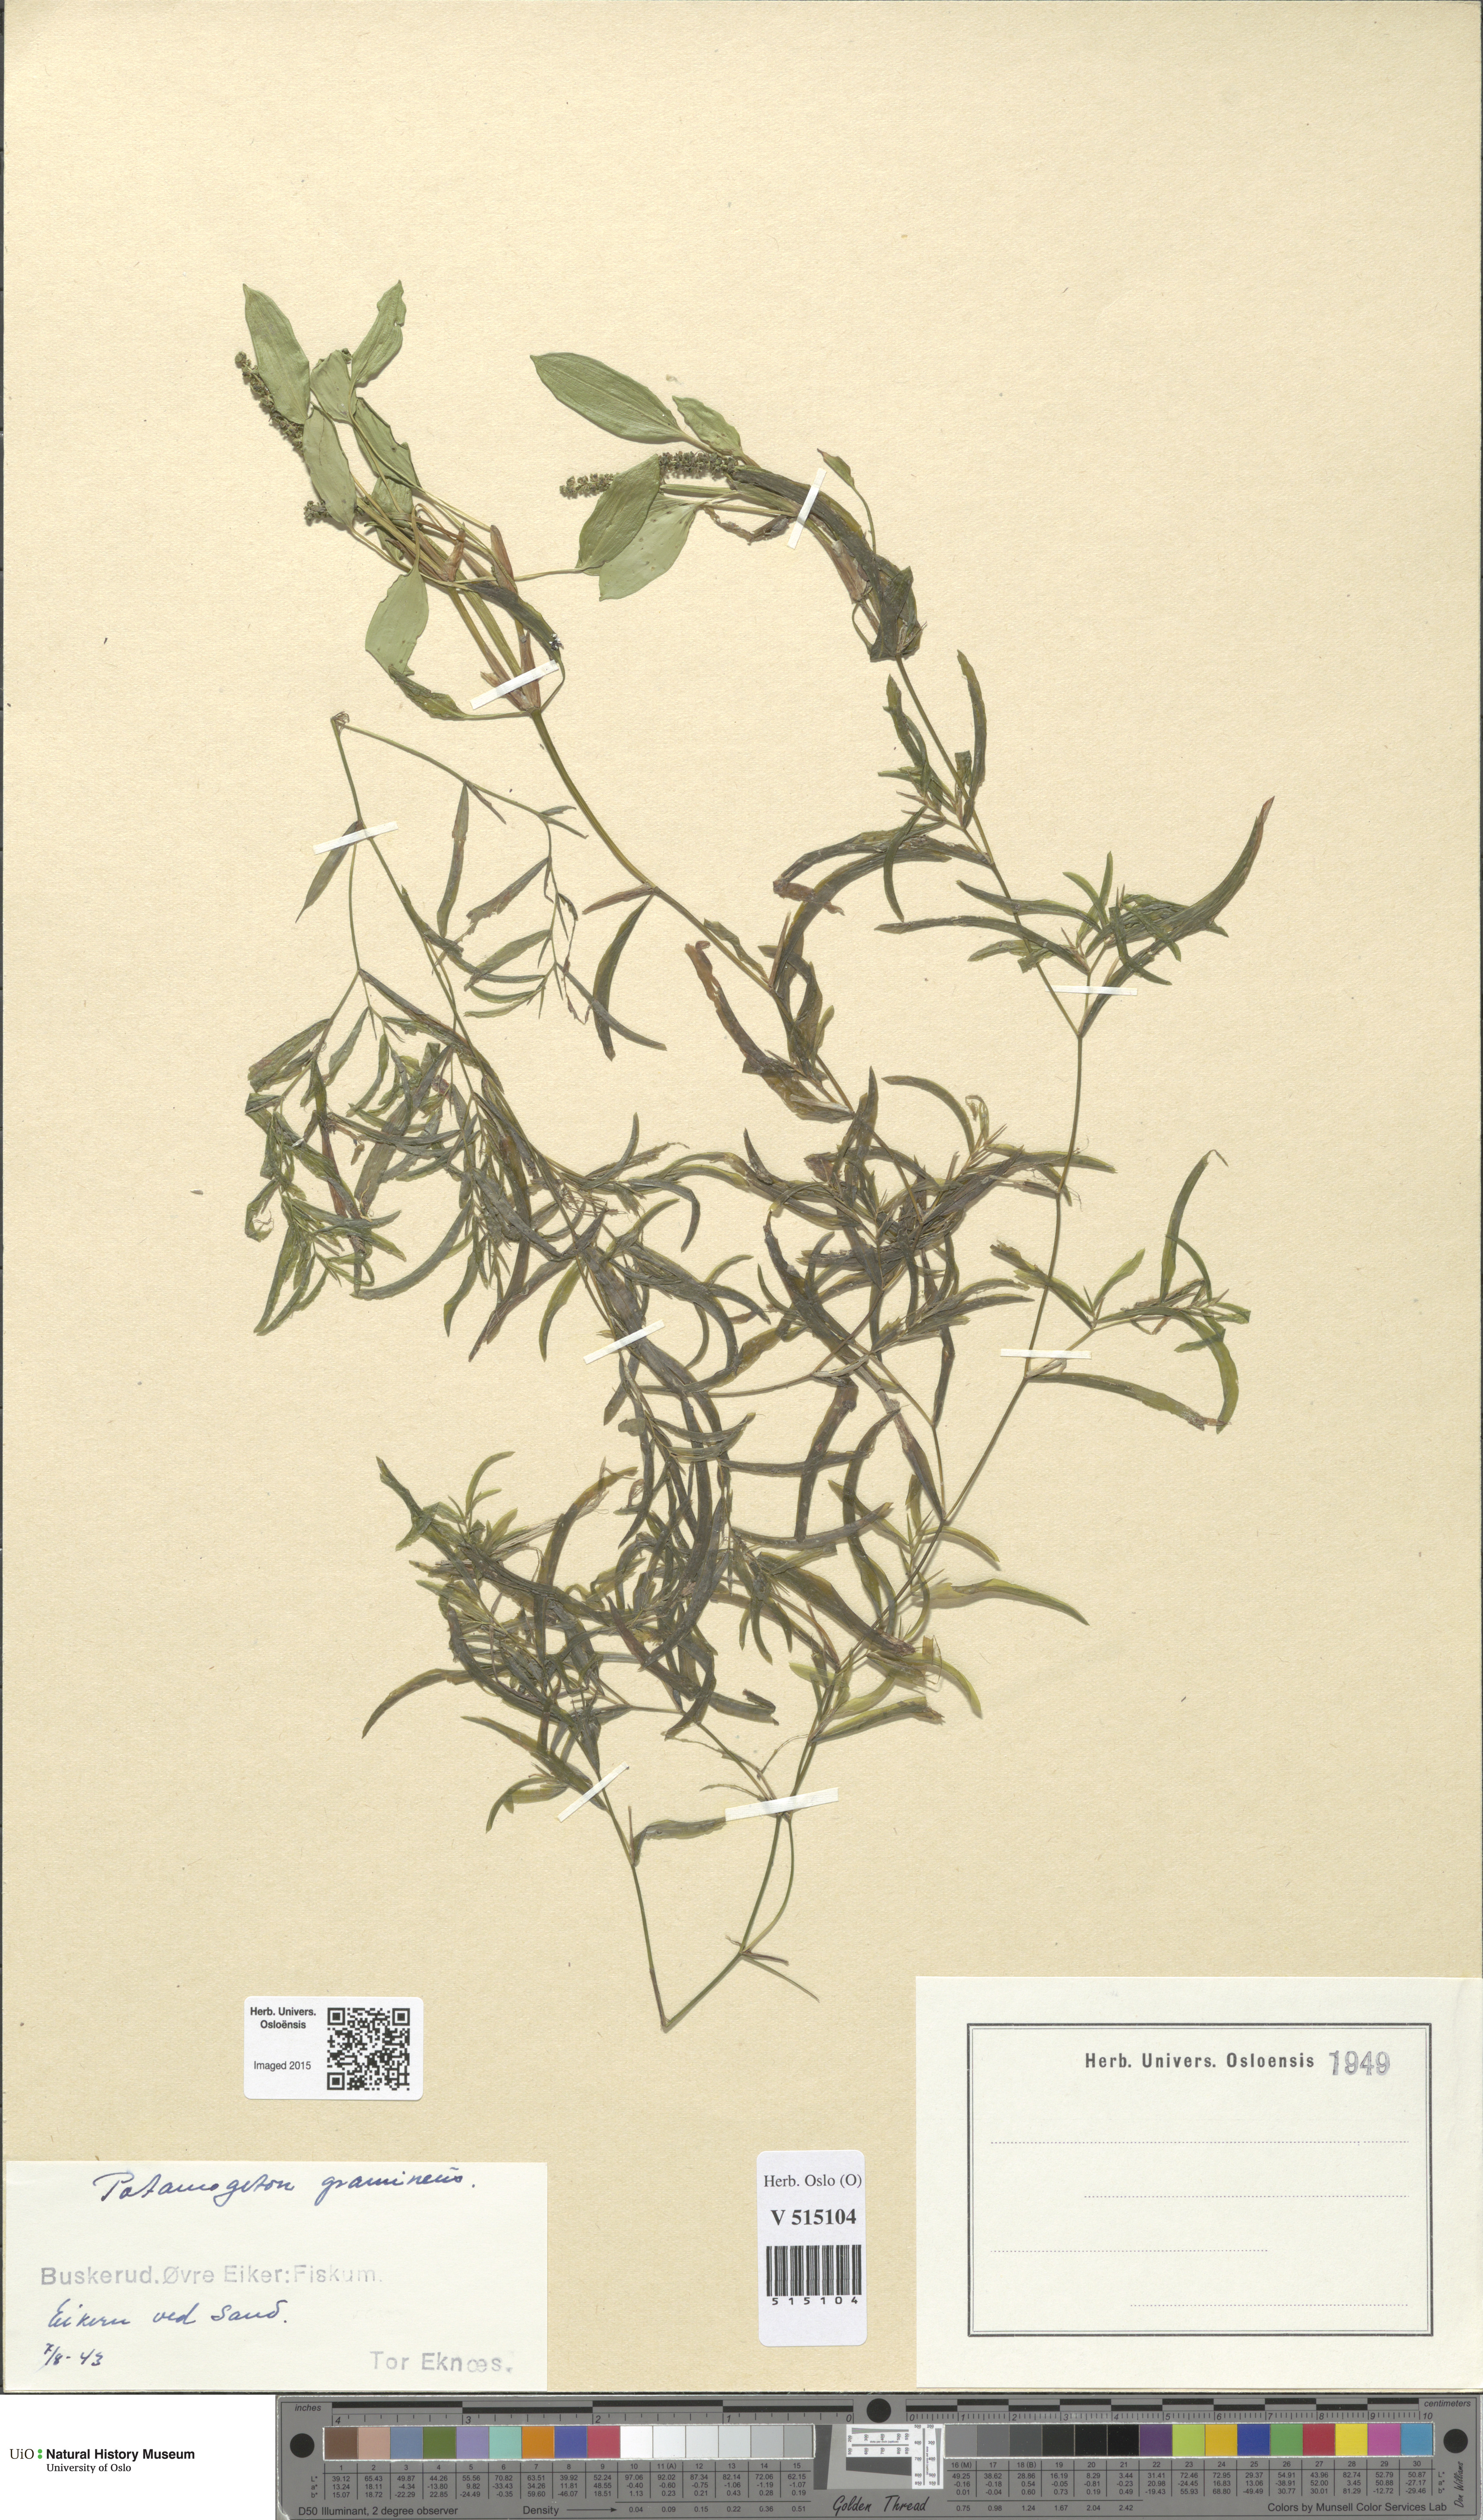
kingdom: Plantae
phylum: Tracheophyta
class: Liliopsida
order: Alismatales
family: Potamogetonaceae
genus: Potamogeton
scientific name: Potamogeton gramineus
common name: Various-leaved pondweed
